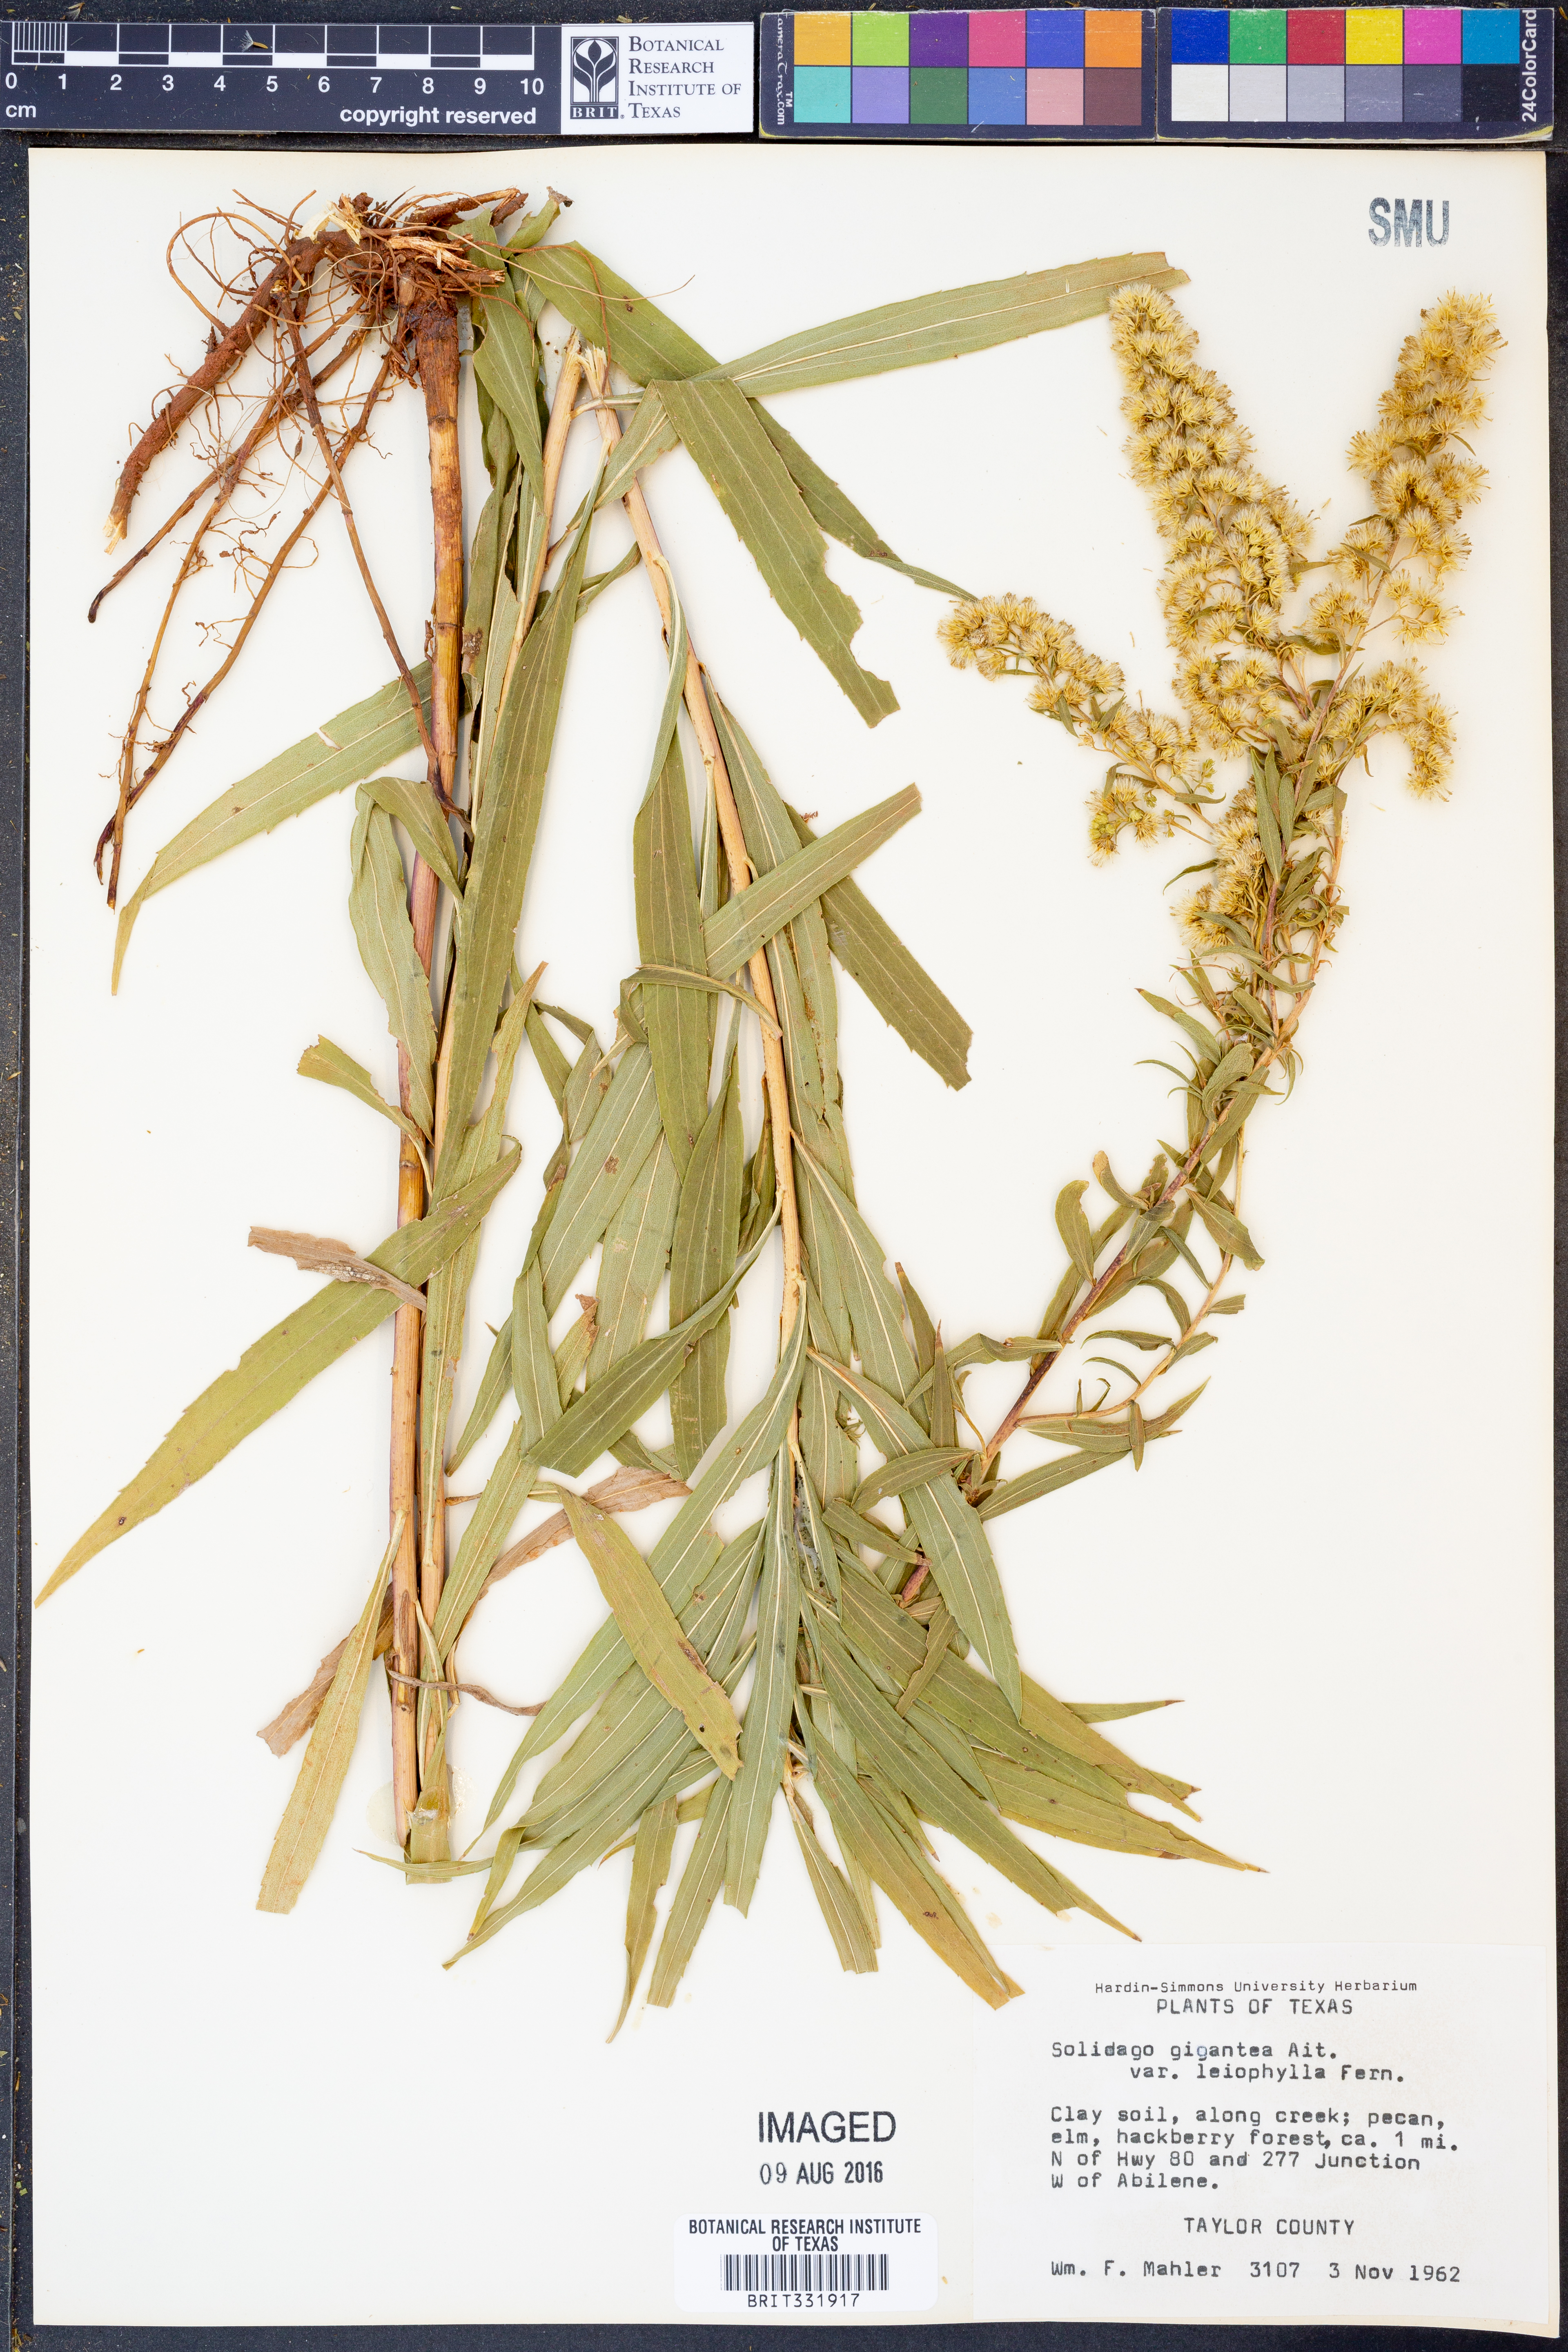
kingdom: Plantae
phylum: Tracheophyta
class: Magnoliopsida
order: Asterales
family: Asteraceae
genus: Solidago
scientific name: Solidago gigantea
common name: Giant goldenrod
